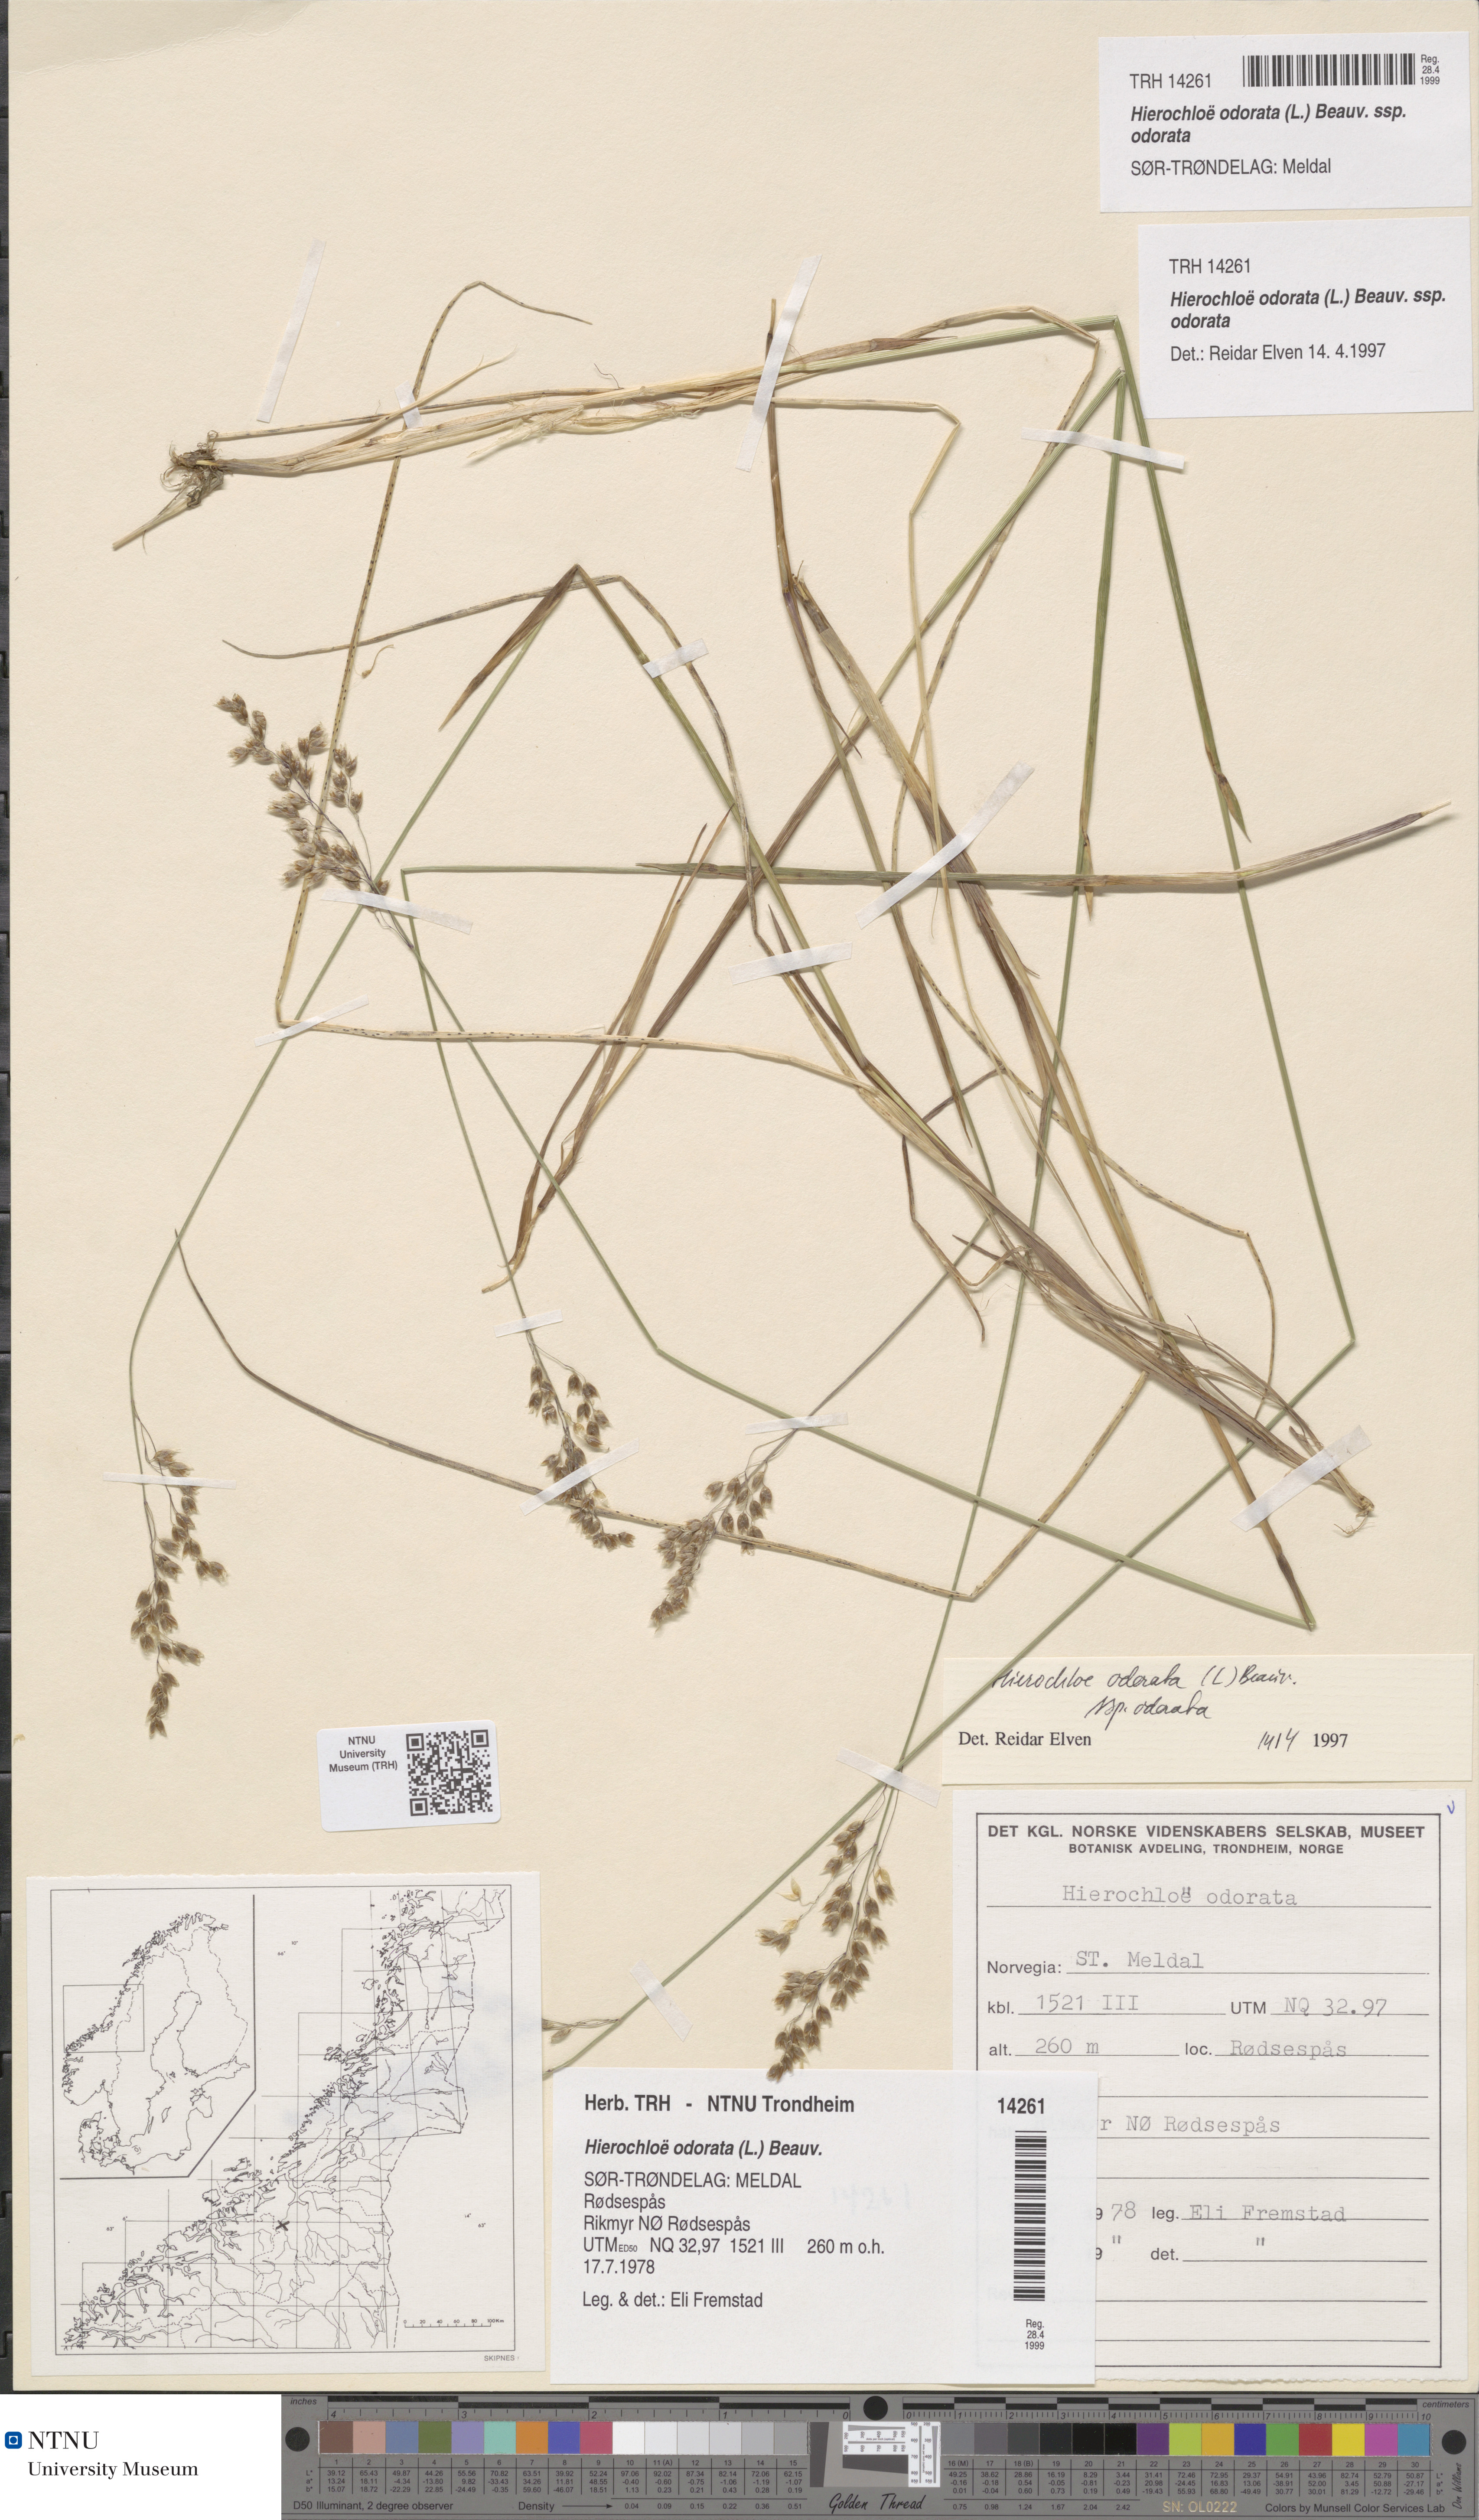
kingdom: Plantae
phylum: Tracheophyta
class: Liliopsida
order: Poales
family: Poaceae
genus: Anthoxanthum
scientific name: Anthoxanthum nitens
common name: Holy grass
